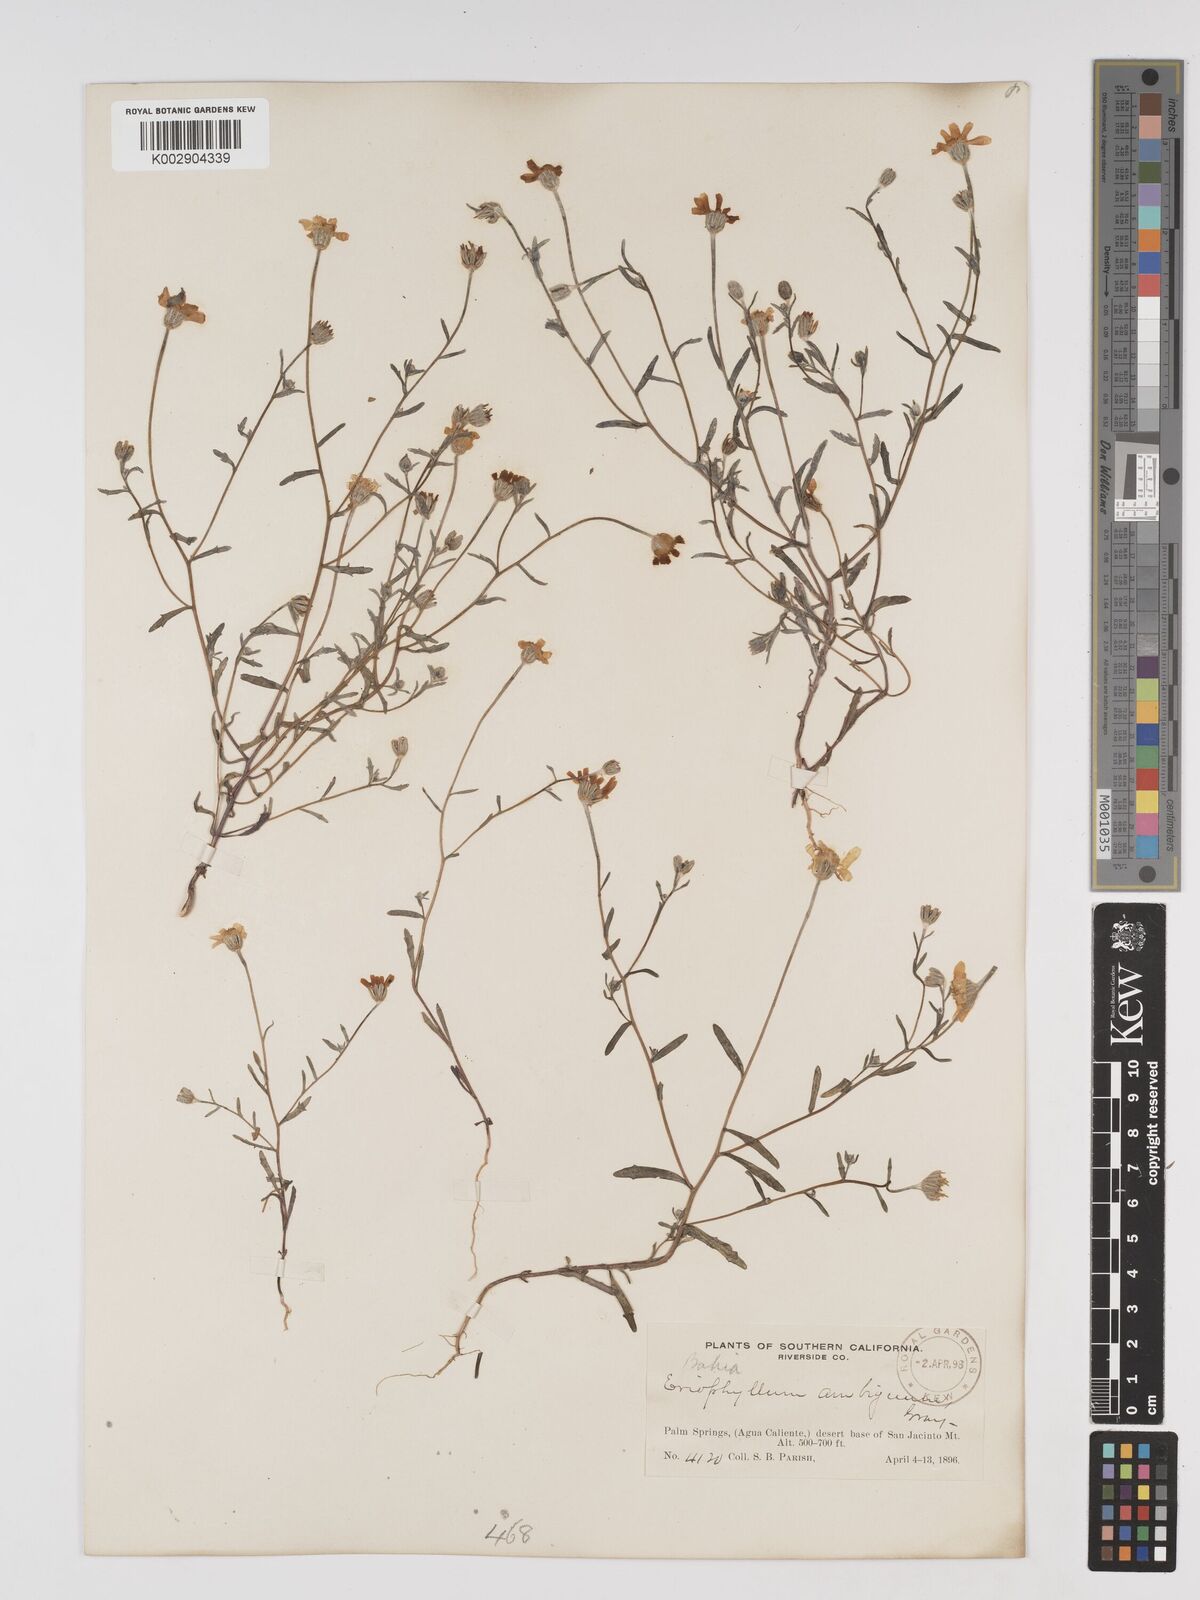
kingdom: Plantae
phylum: Tracheophyta
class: Magnoliopsida
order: Asterales
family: Asteraceae
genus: Eriophyllum
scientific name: Eriophyllum ambiguum
